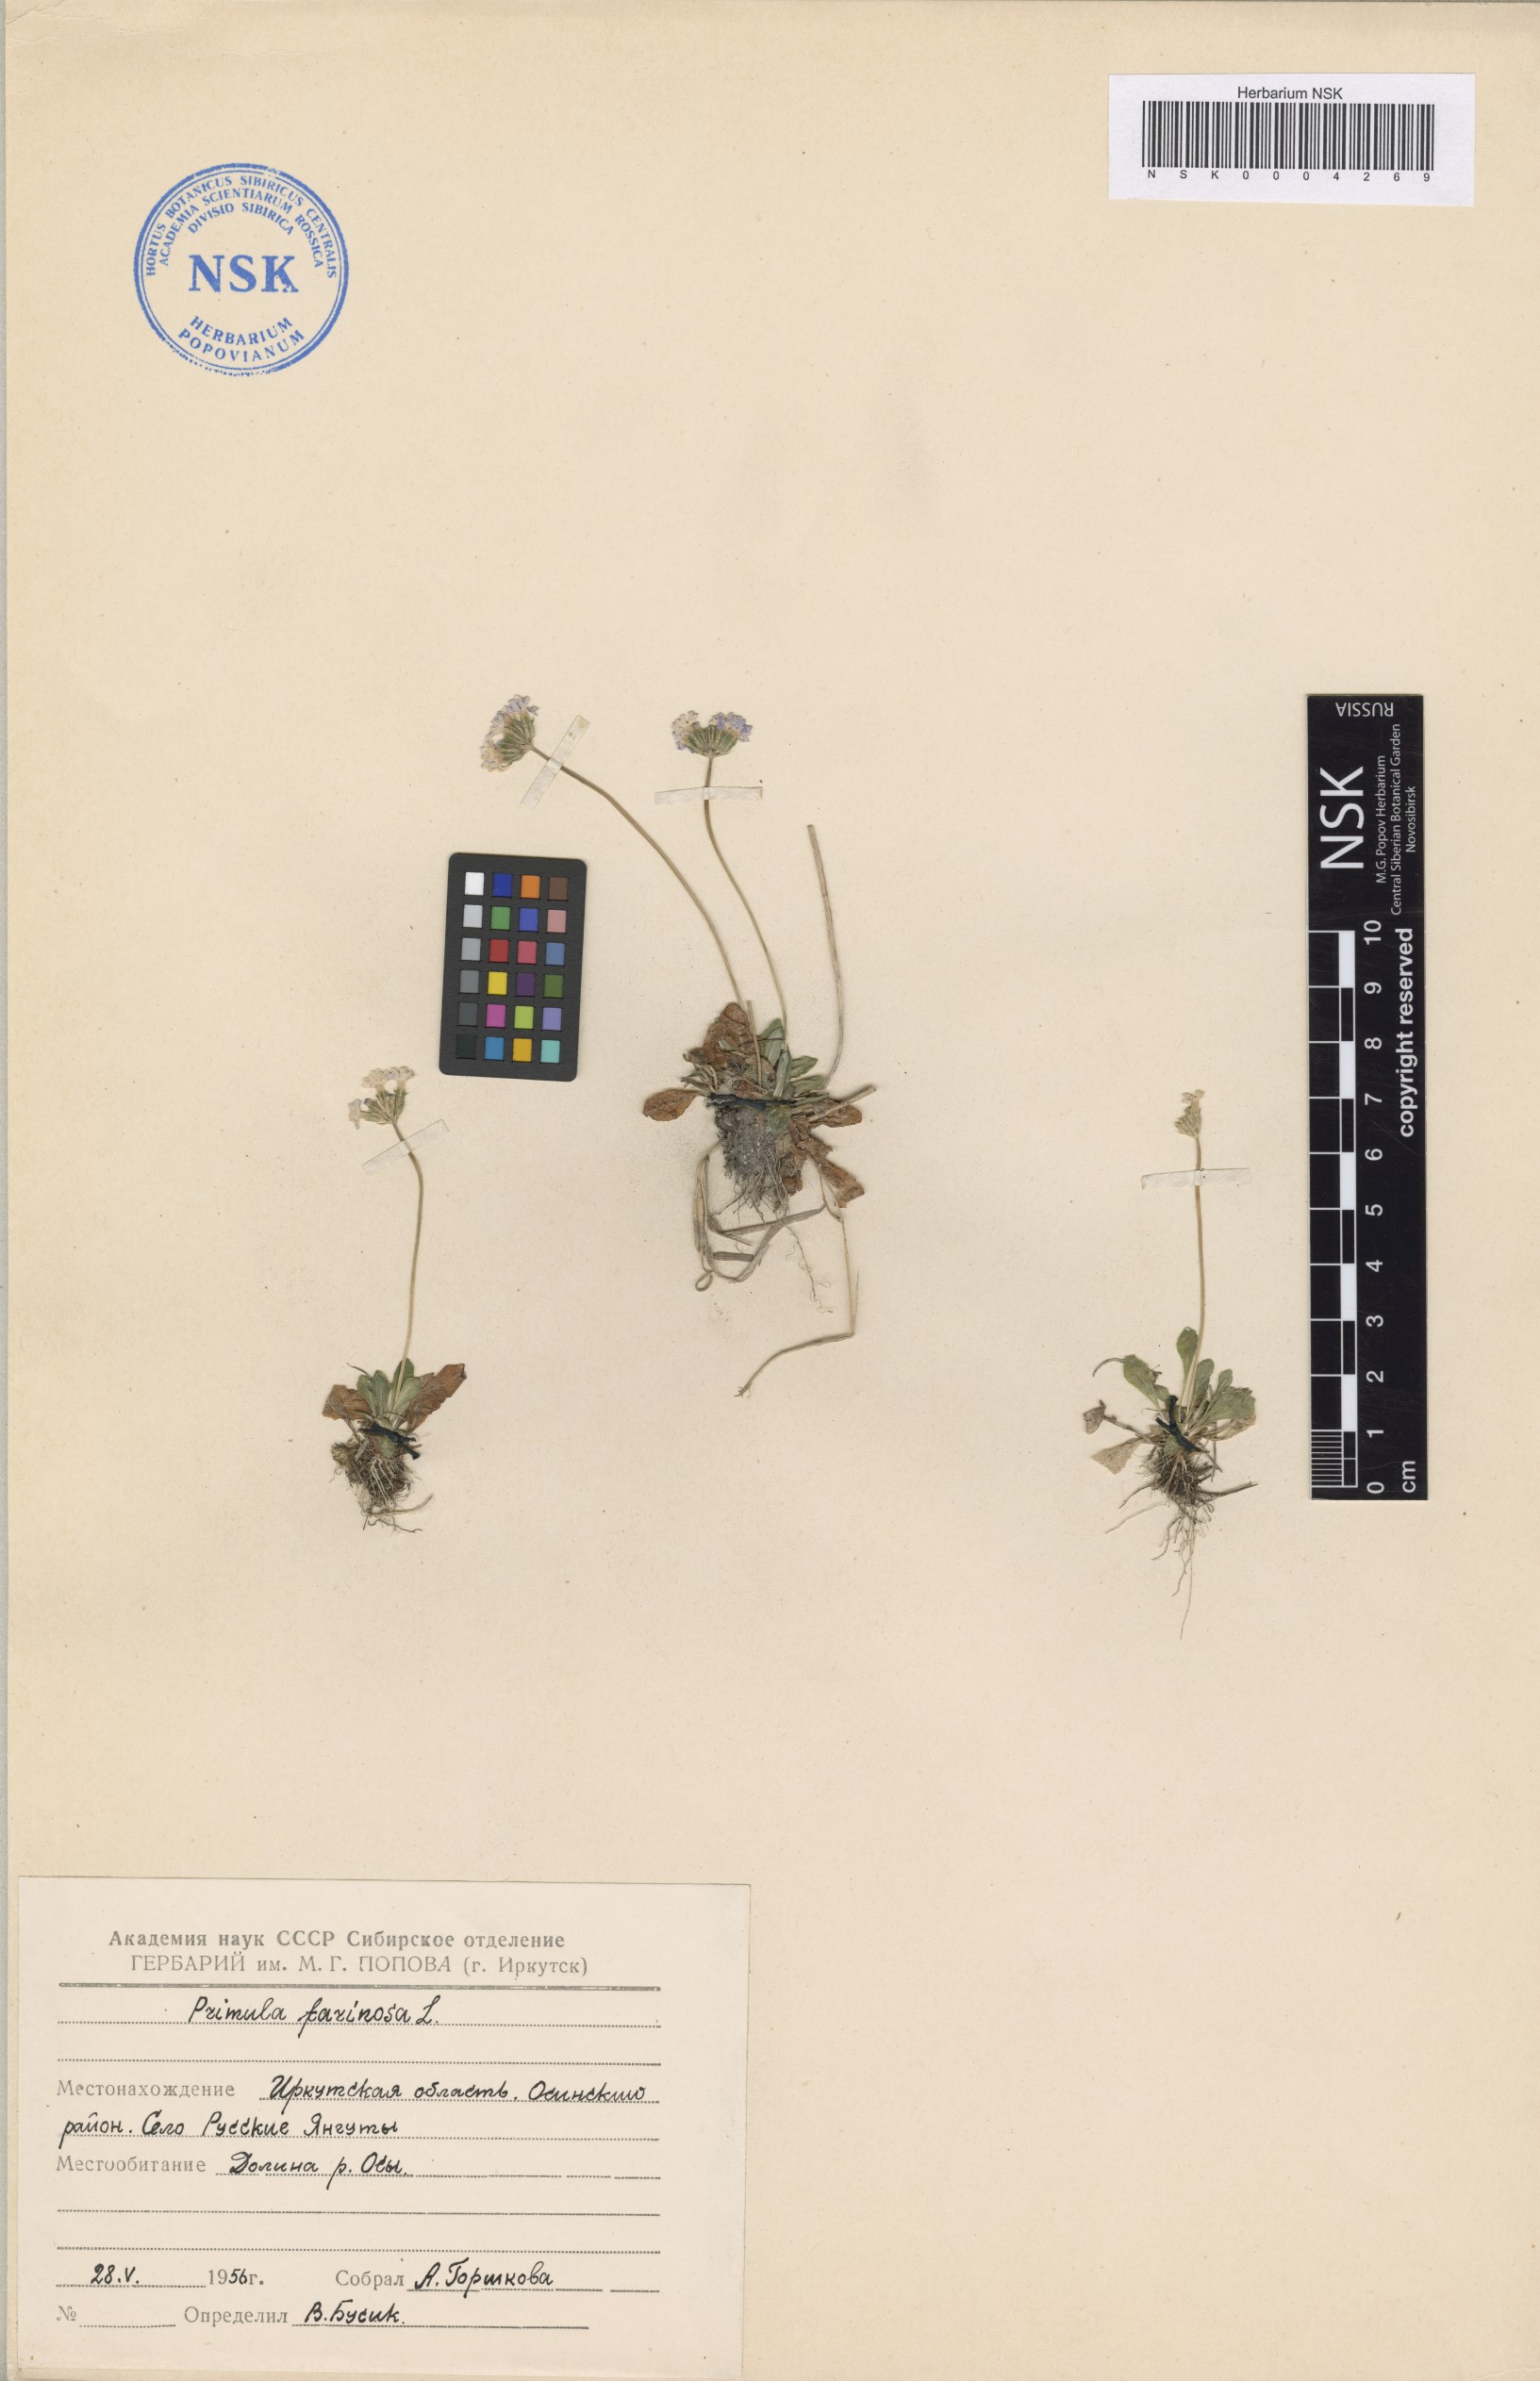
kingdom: Plantae
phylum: Tracheophyta
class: Magnoliopsida
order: Ericales
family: Primulaceae
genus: Primula
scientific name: Primula farinosa
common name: Bird's-eye primrose
